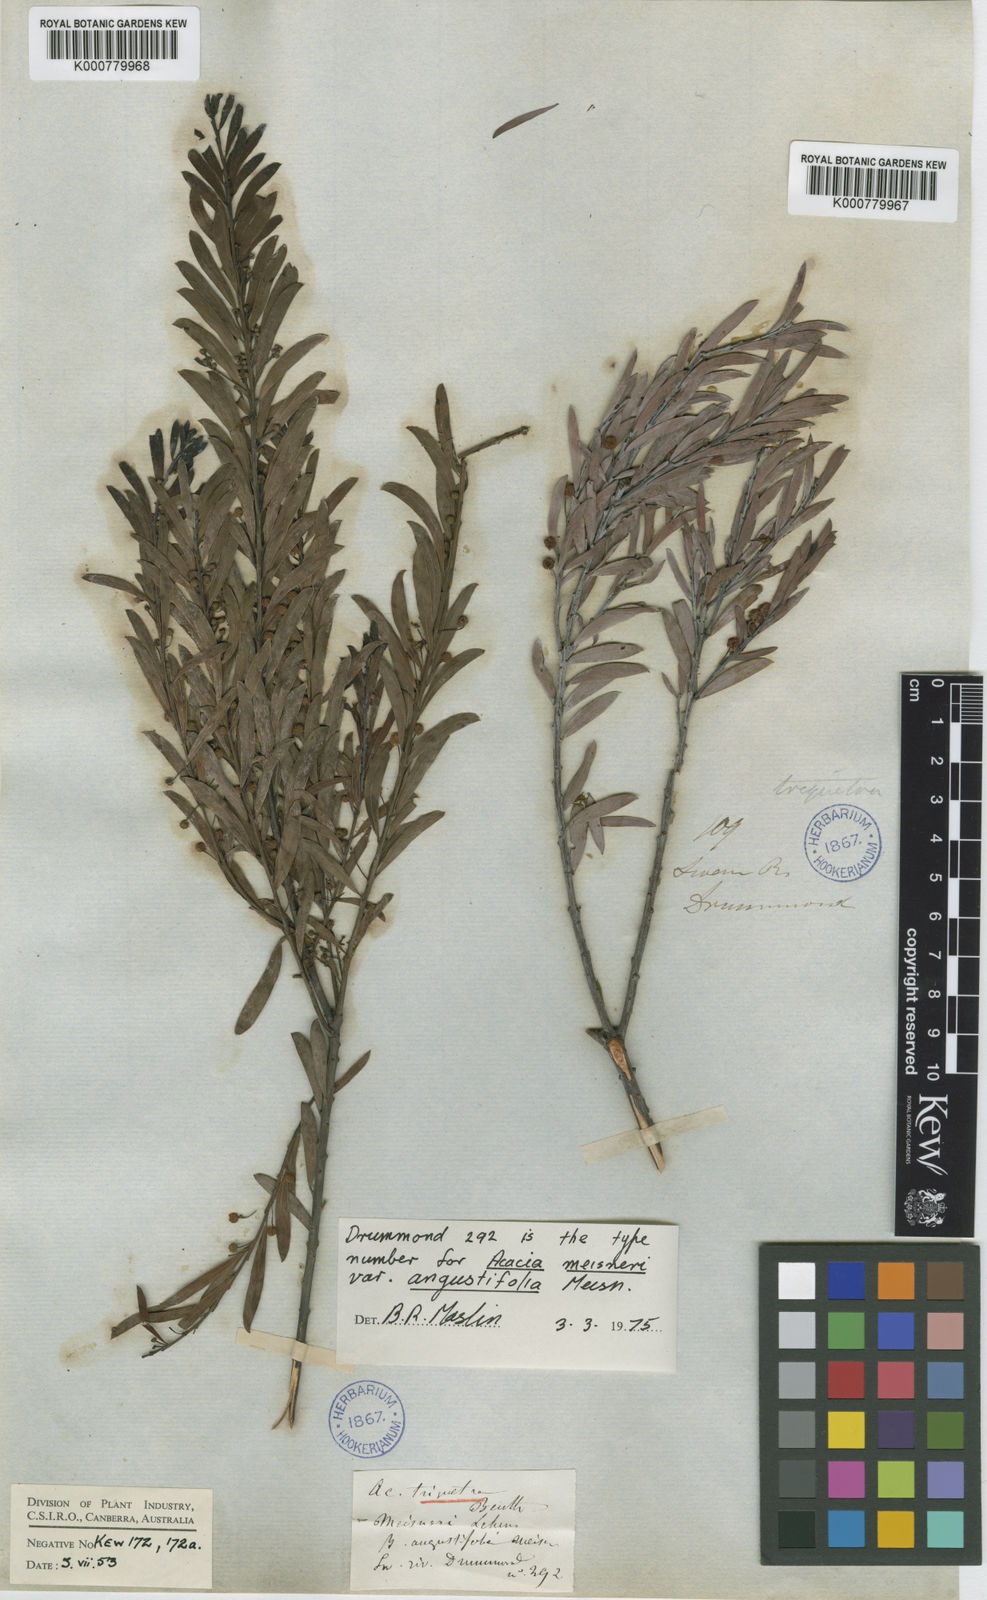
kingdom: Plantae
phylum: Tracheophyta
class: Magnoliopsida
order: Fabales
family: Fabaceae
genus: Acacia
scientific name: Acacia leptopetala
